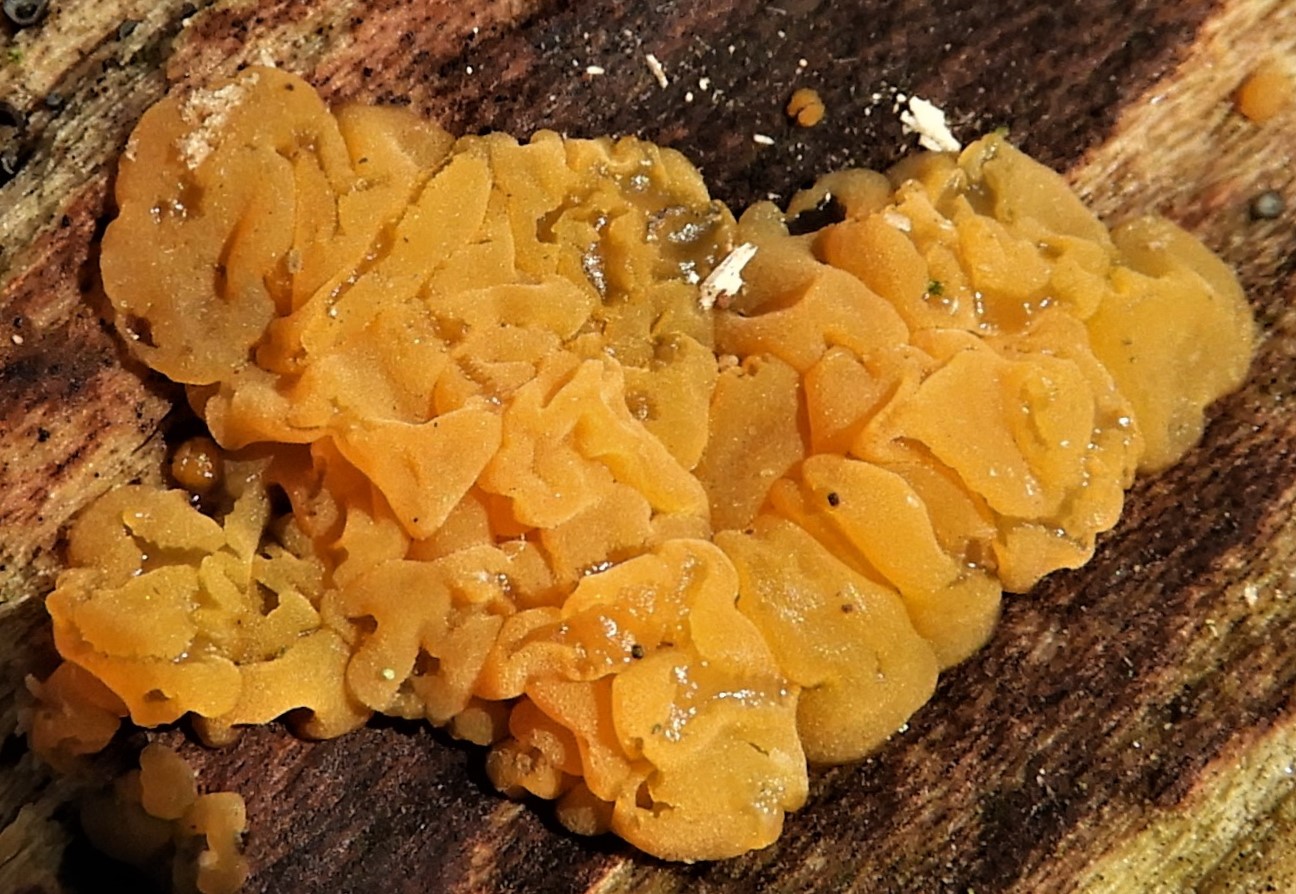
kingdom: Fungi
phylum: Basidiomycota
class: Dacrymycetes
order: Dacrymycetales
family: Dacrymycetaceae
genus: Dacrymyces
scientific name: Dacrymyces lacrymalis
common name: rynket tåresvamp
